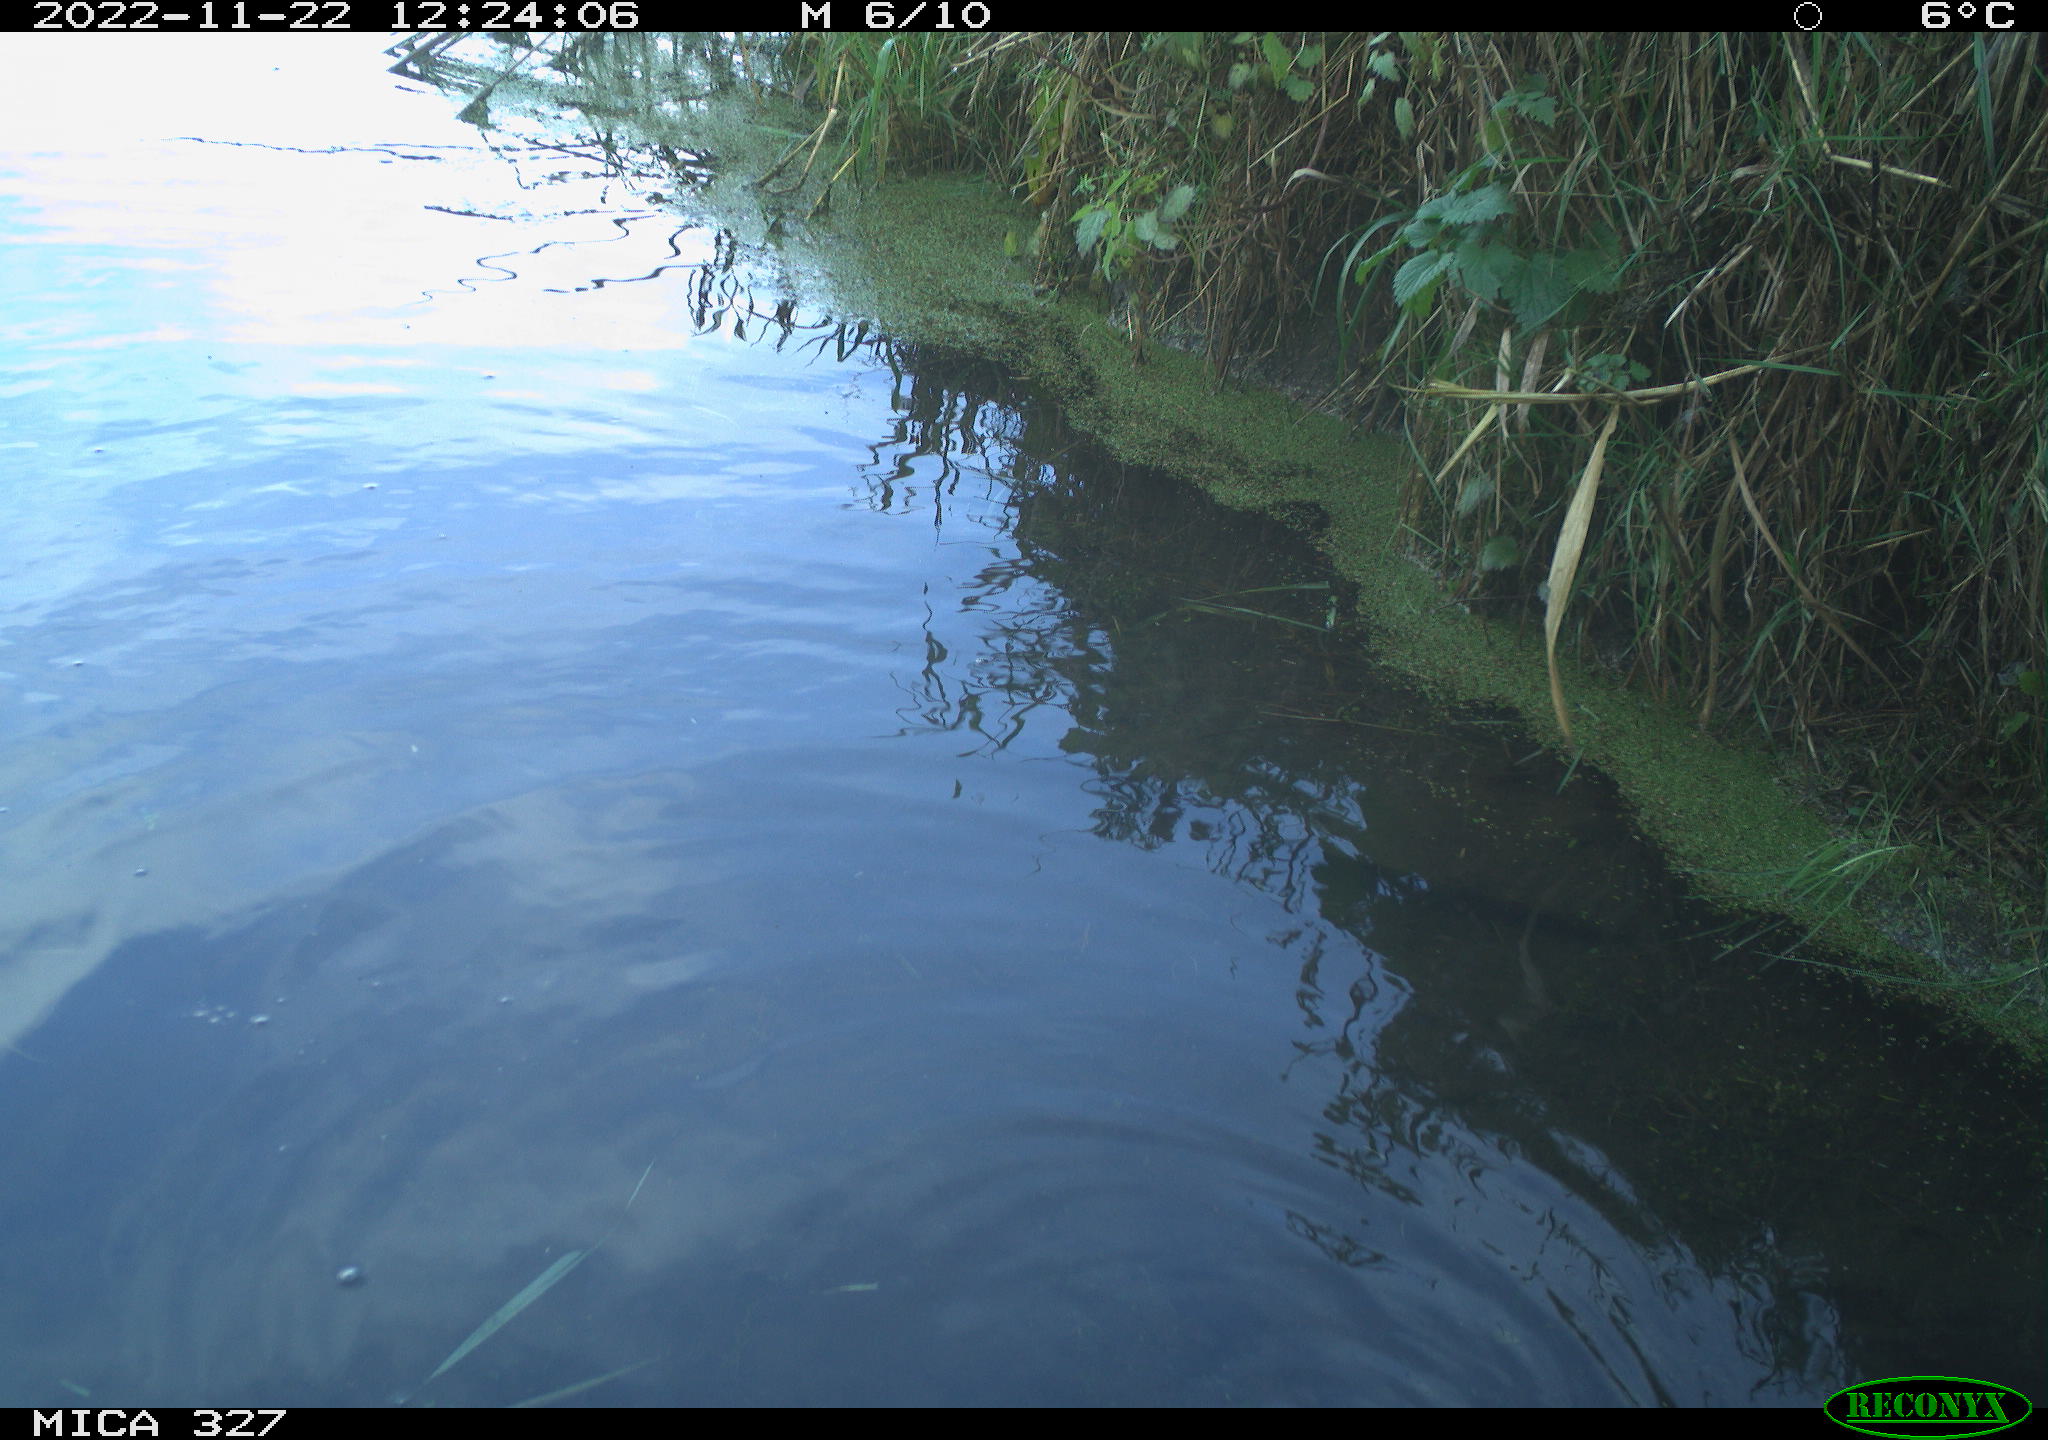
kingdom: Animalia
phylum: Chordata
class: Aves
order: Gruiformes
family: Rallidae
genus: Gallinula
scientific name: Gallinula chloropus
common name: Common moorhen
